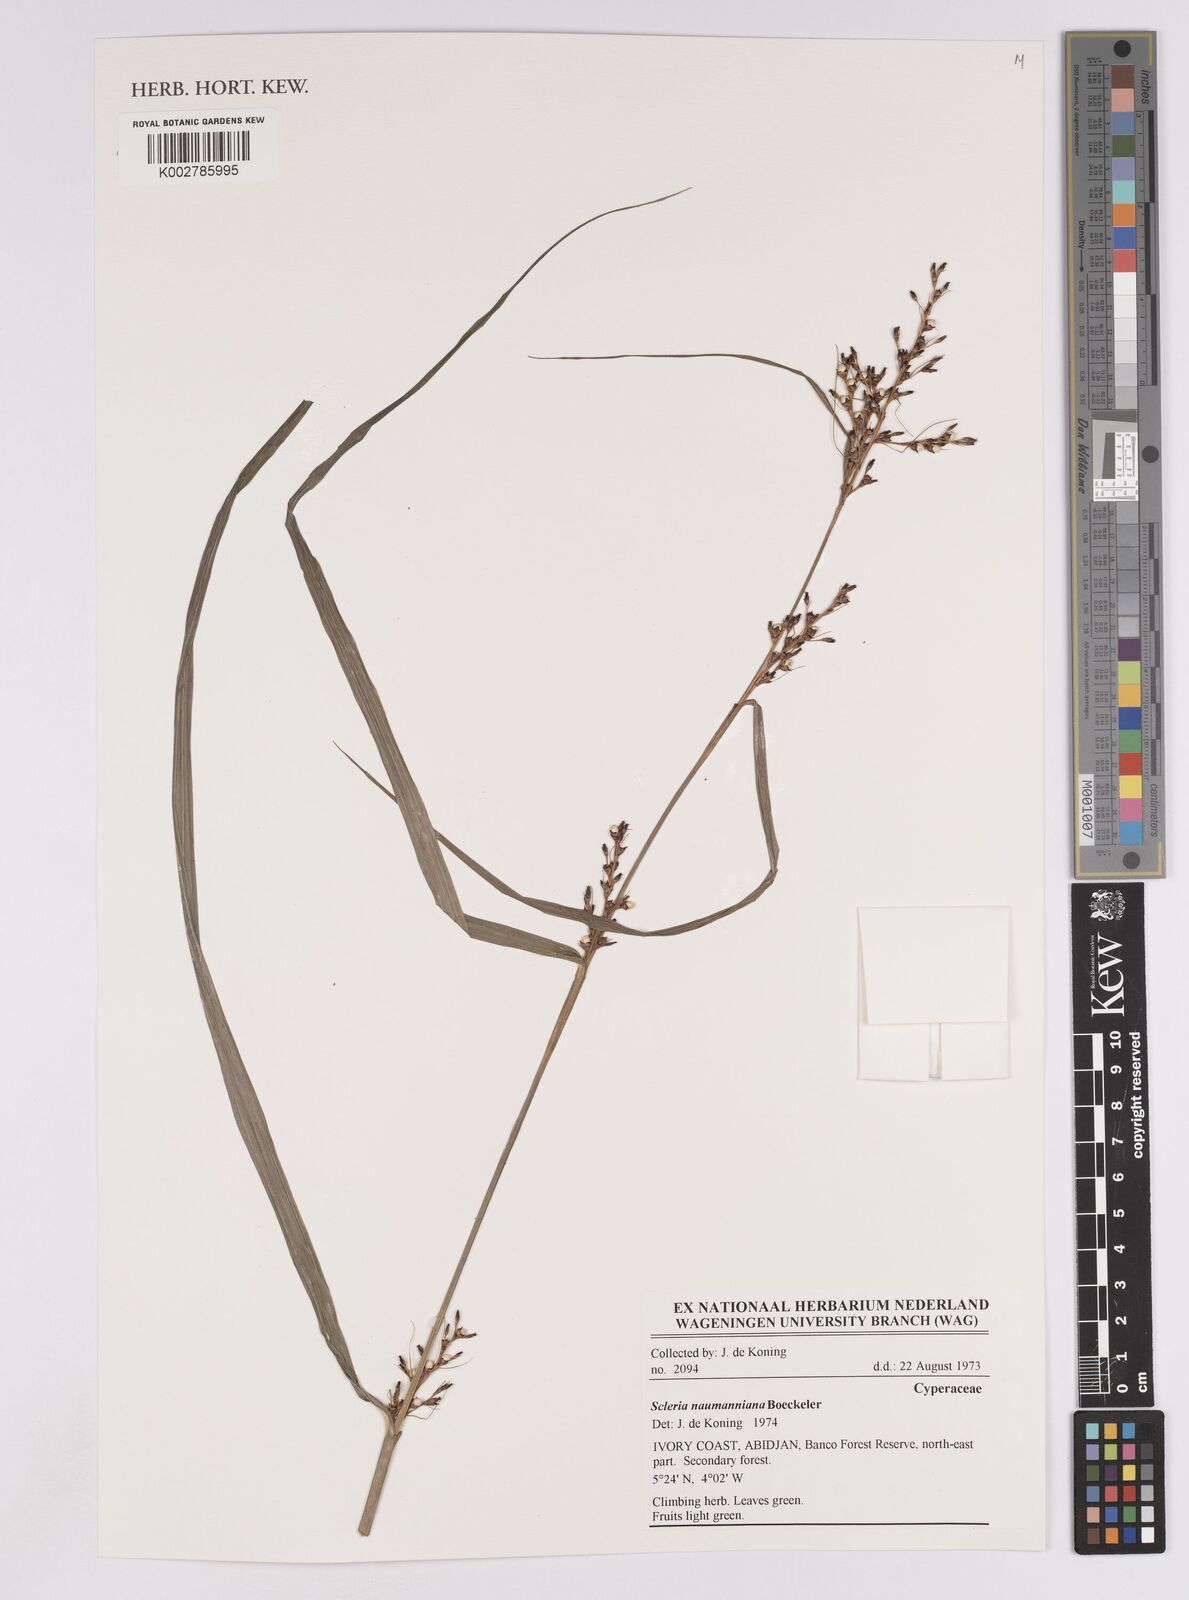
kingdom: Plantae
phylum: Tracheophyta
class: Liliopsida
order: Poales
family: Cyperaceae
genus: Scleria
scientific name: Scleria naumanniana
